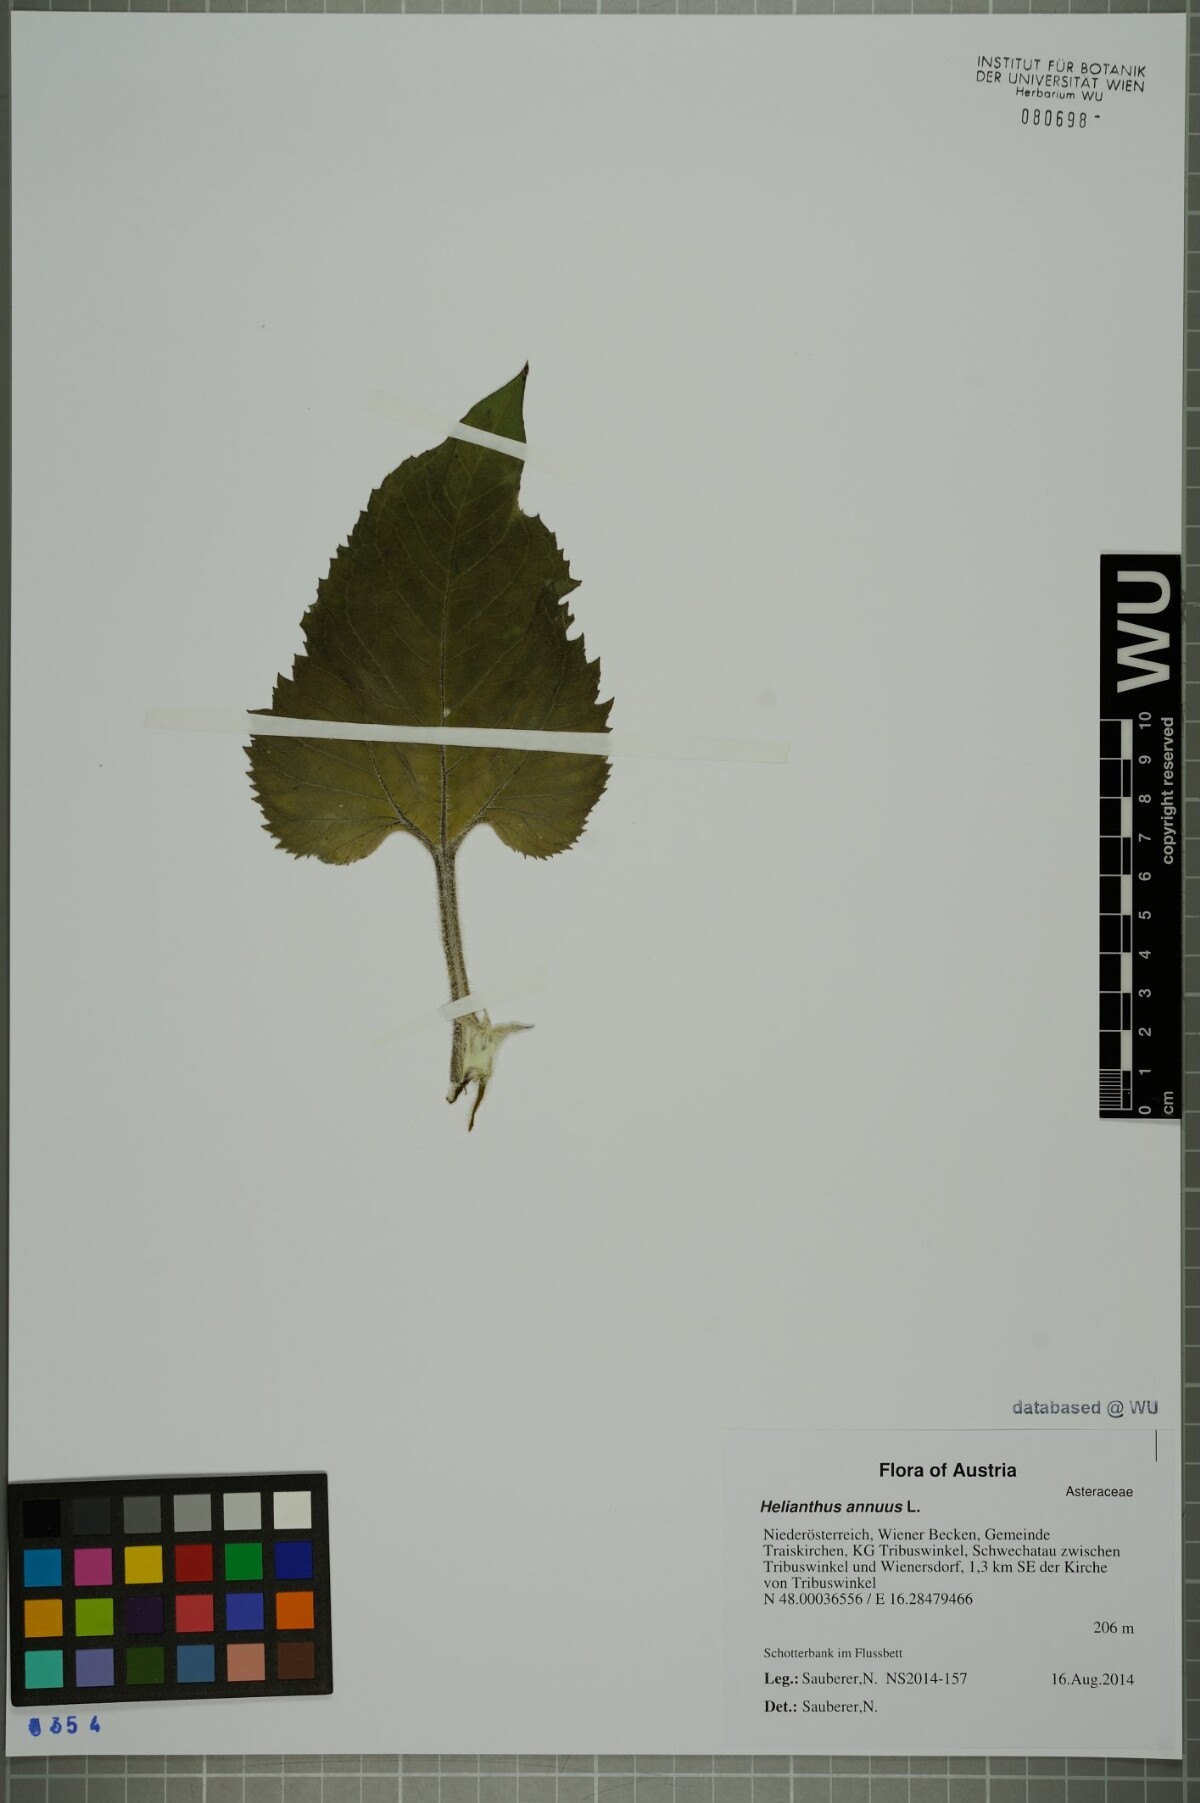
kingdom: Plantae
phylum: Tracheophyta
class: Magnoliopsida
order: Asterales
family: Asteraceae
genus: Helianthus
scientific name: Helianthus annuus
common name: Sunflower
